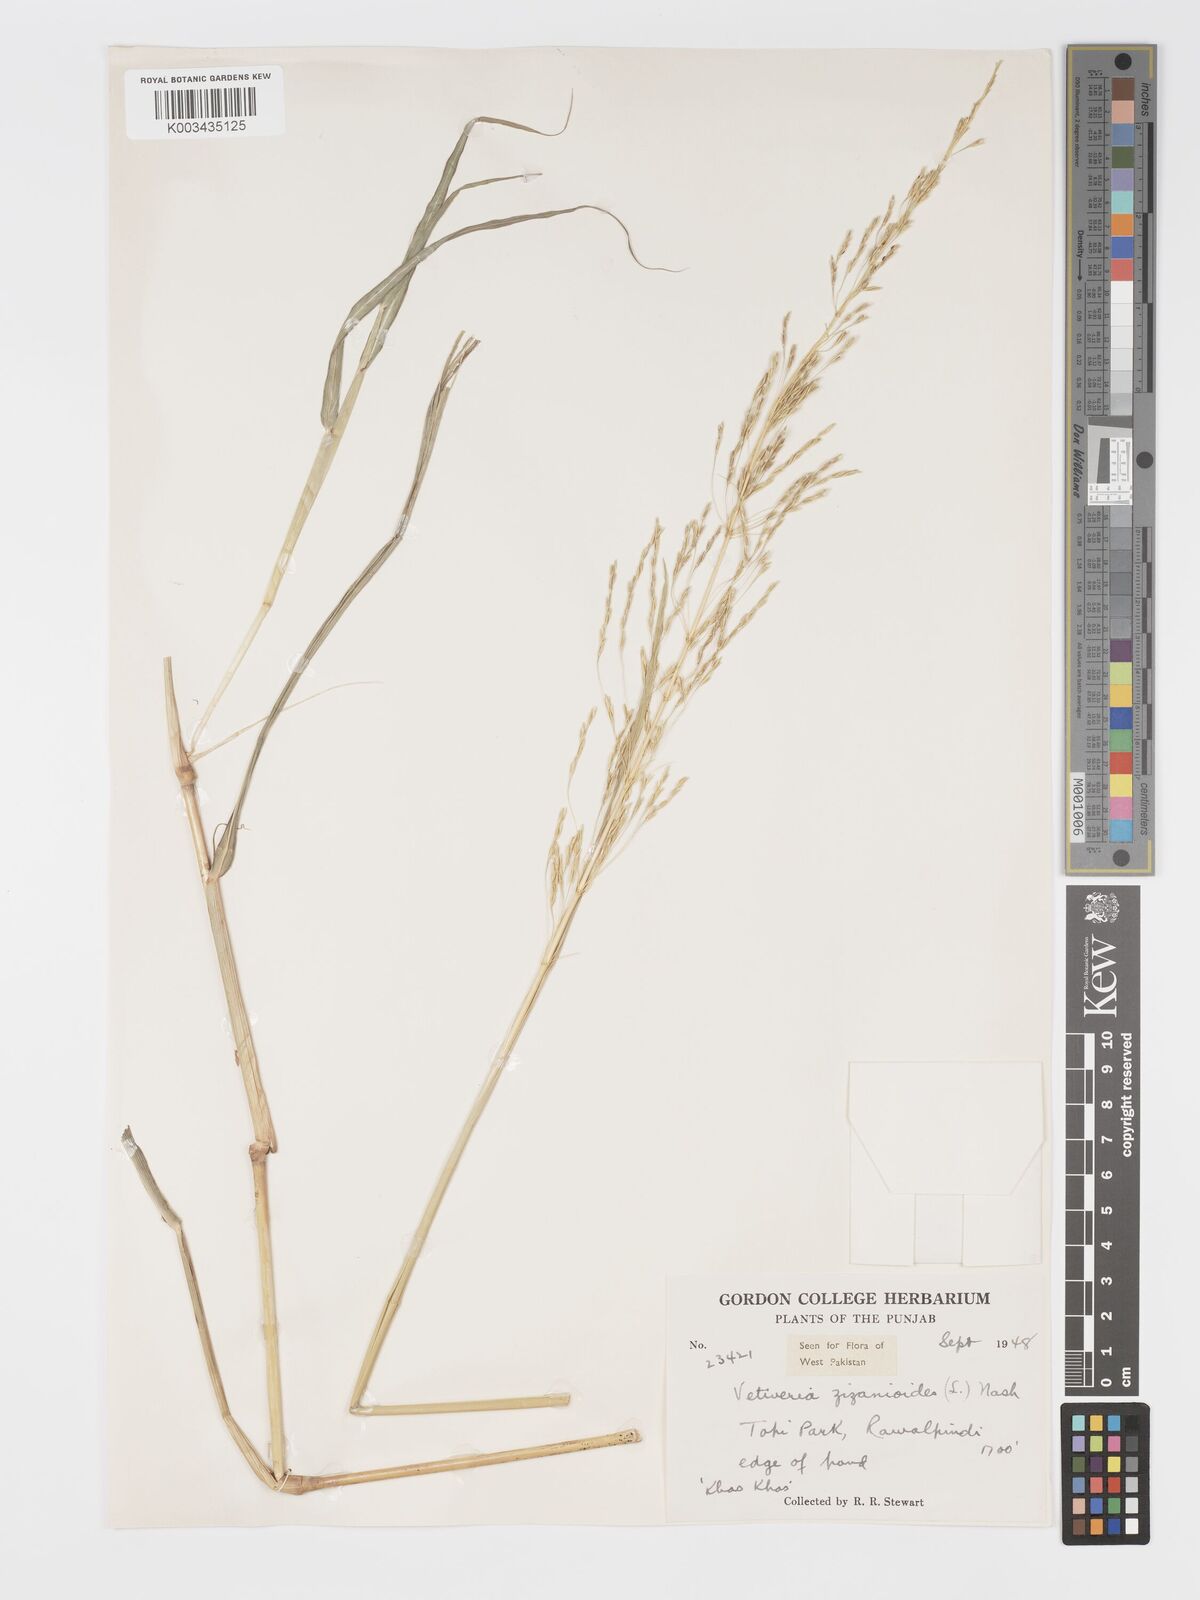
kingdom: Plantae
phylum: Tracheophyta
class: Liliopsida
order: Poales
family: Poaceae
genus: Chrysopogon
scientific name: Chrysopogon zizanioides
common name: False beardgrass
